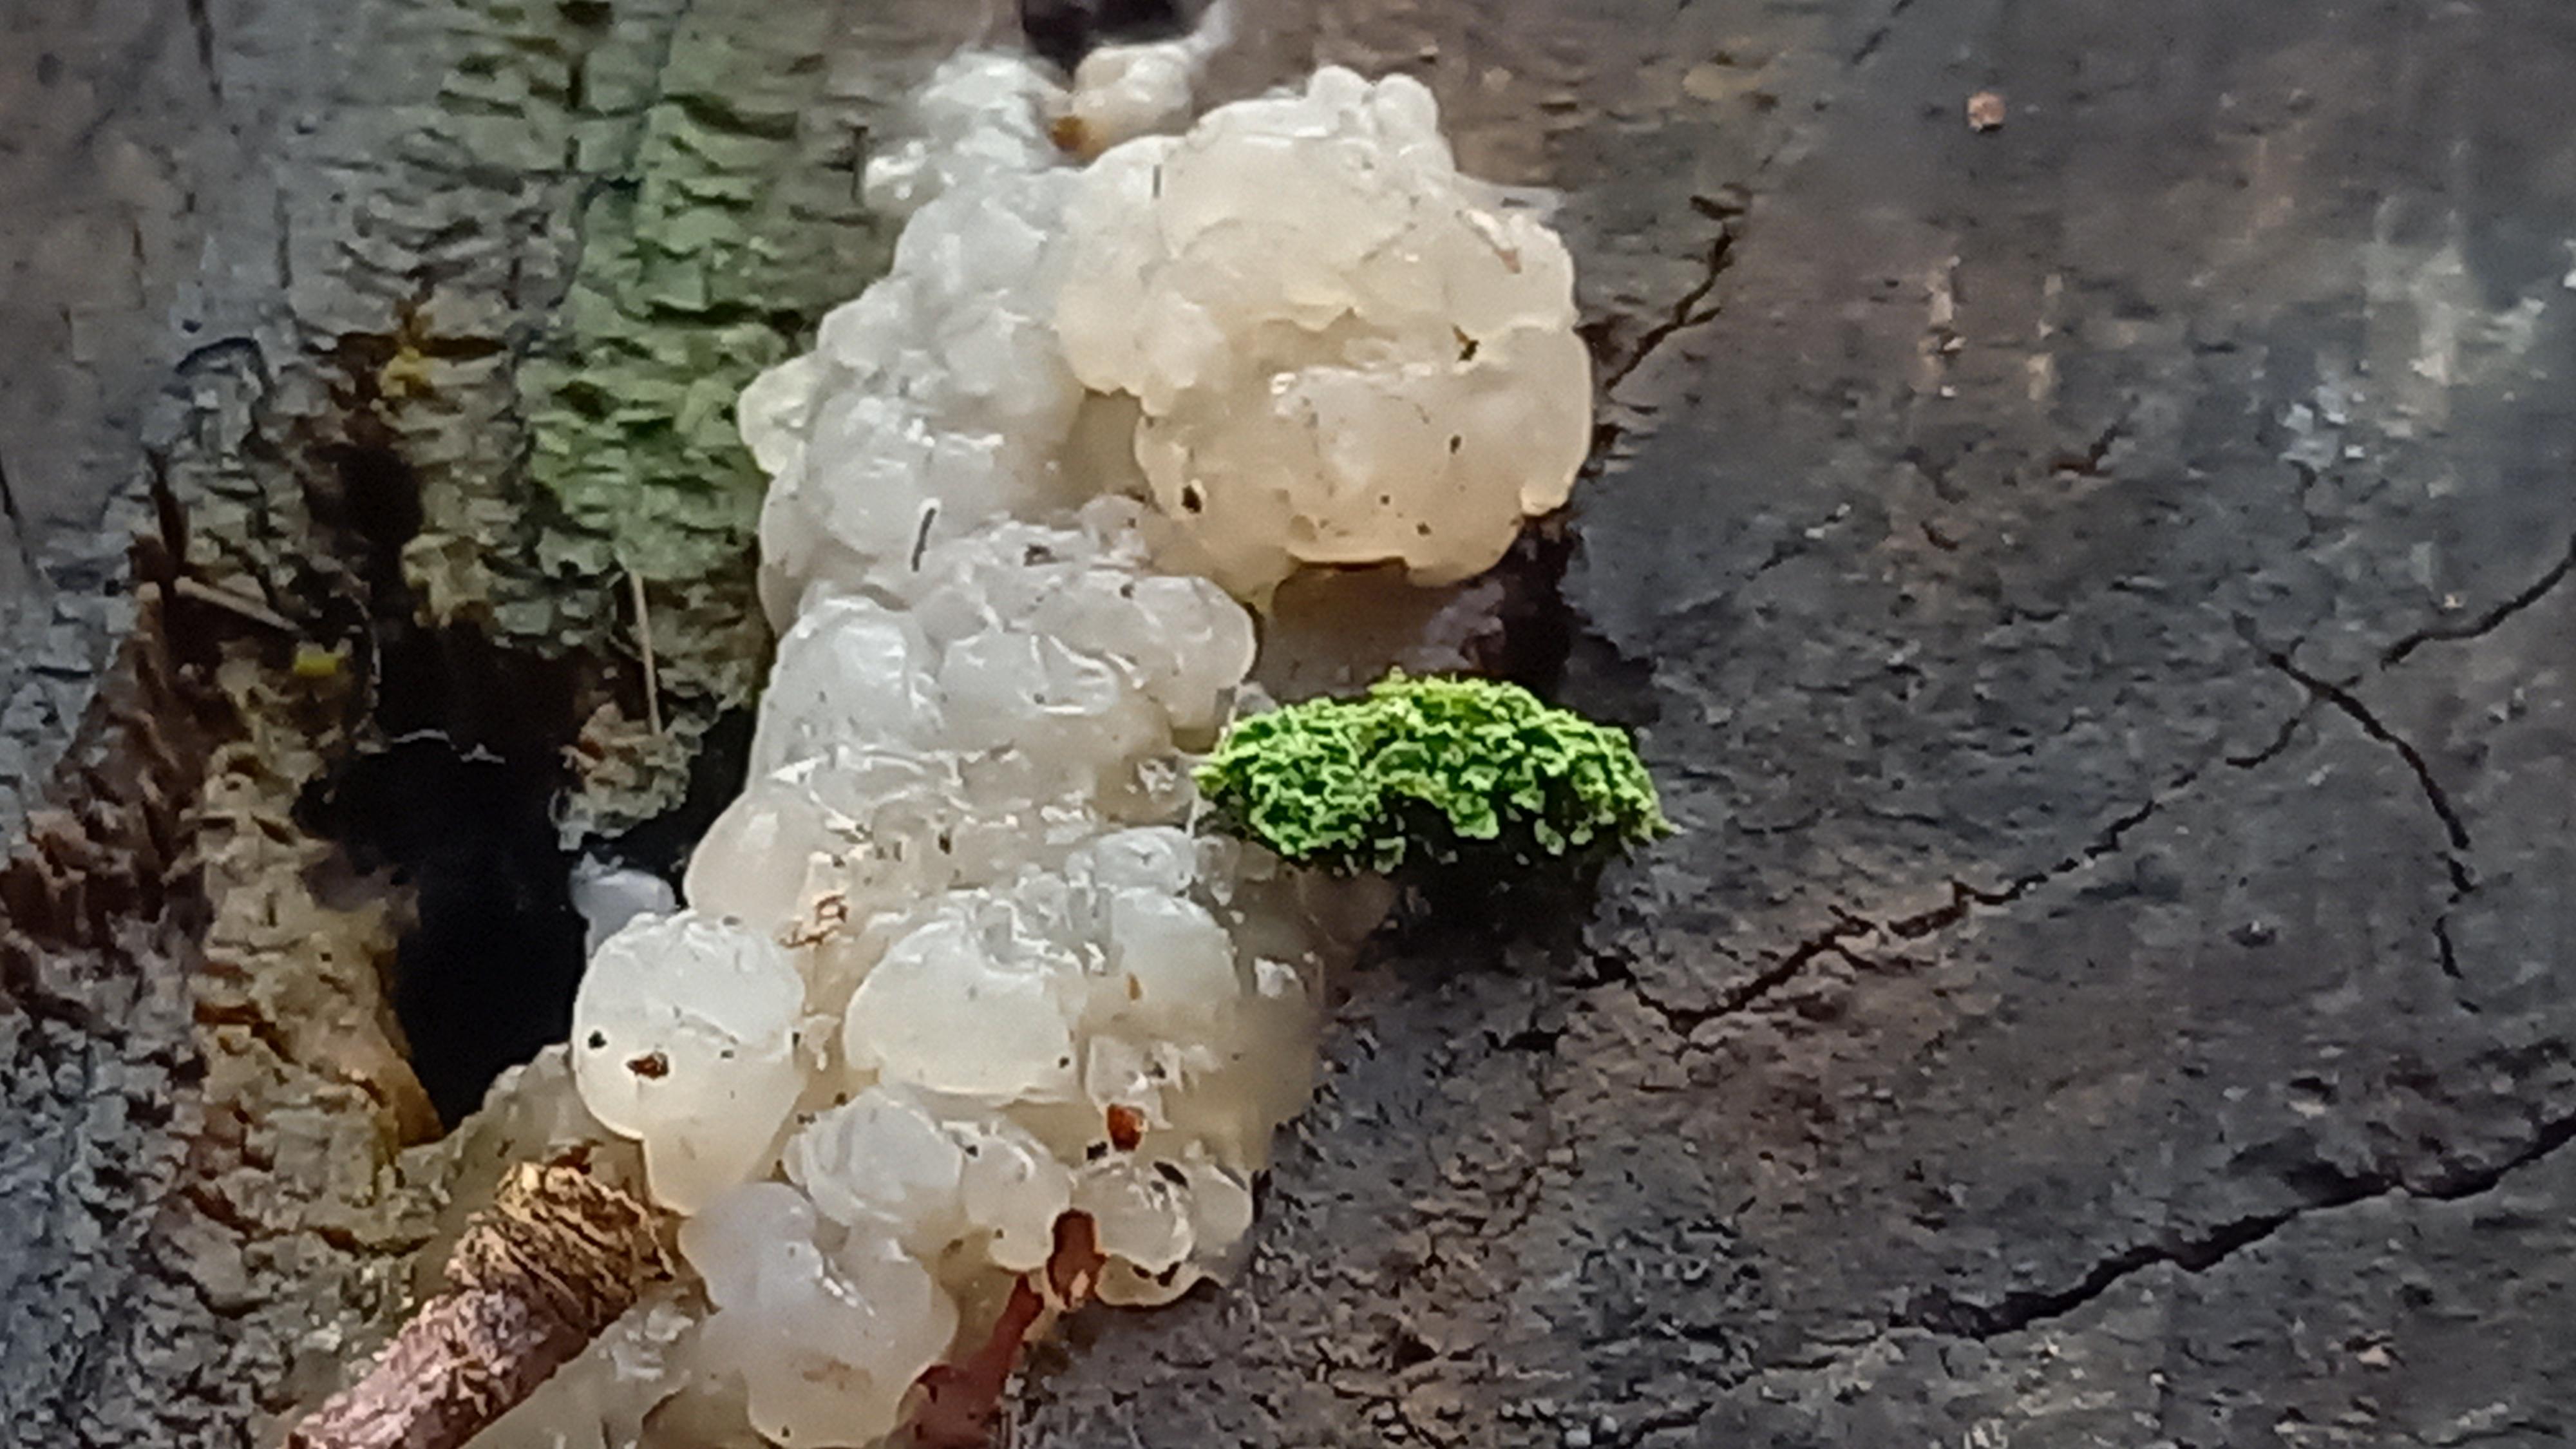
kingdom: Fungi
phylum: Basidiomycota
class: Agaricomycetes
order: Auriculariales
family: Hyaloriaceae
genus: Myxarium
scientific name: Myxarium nucleatum
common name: klar bævretop
